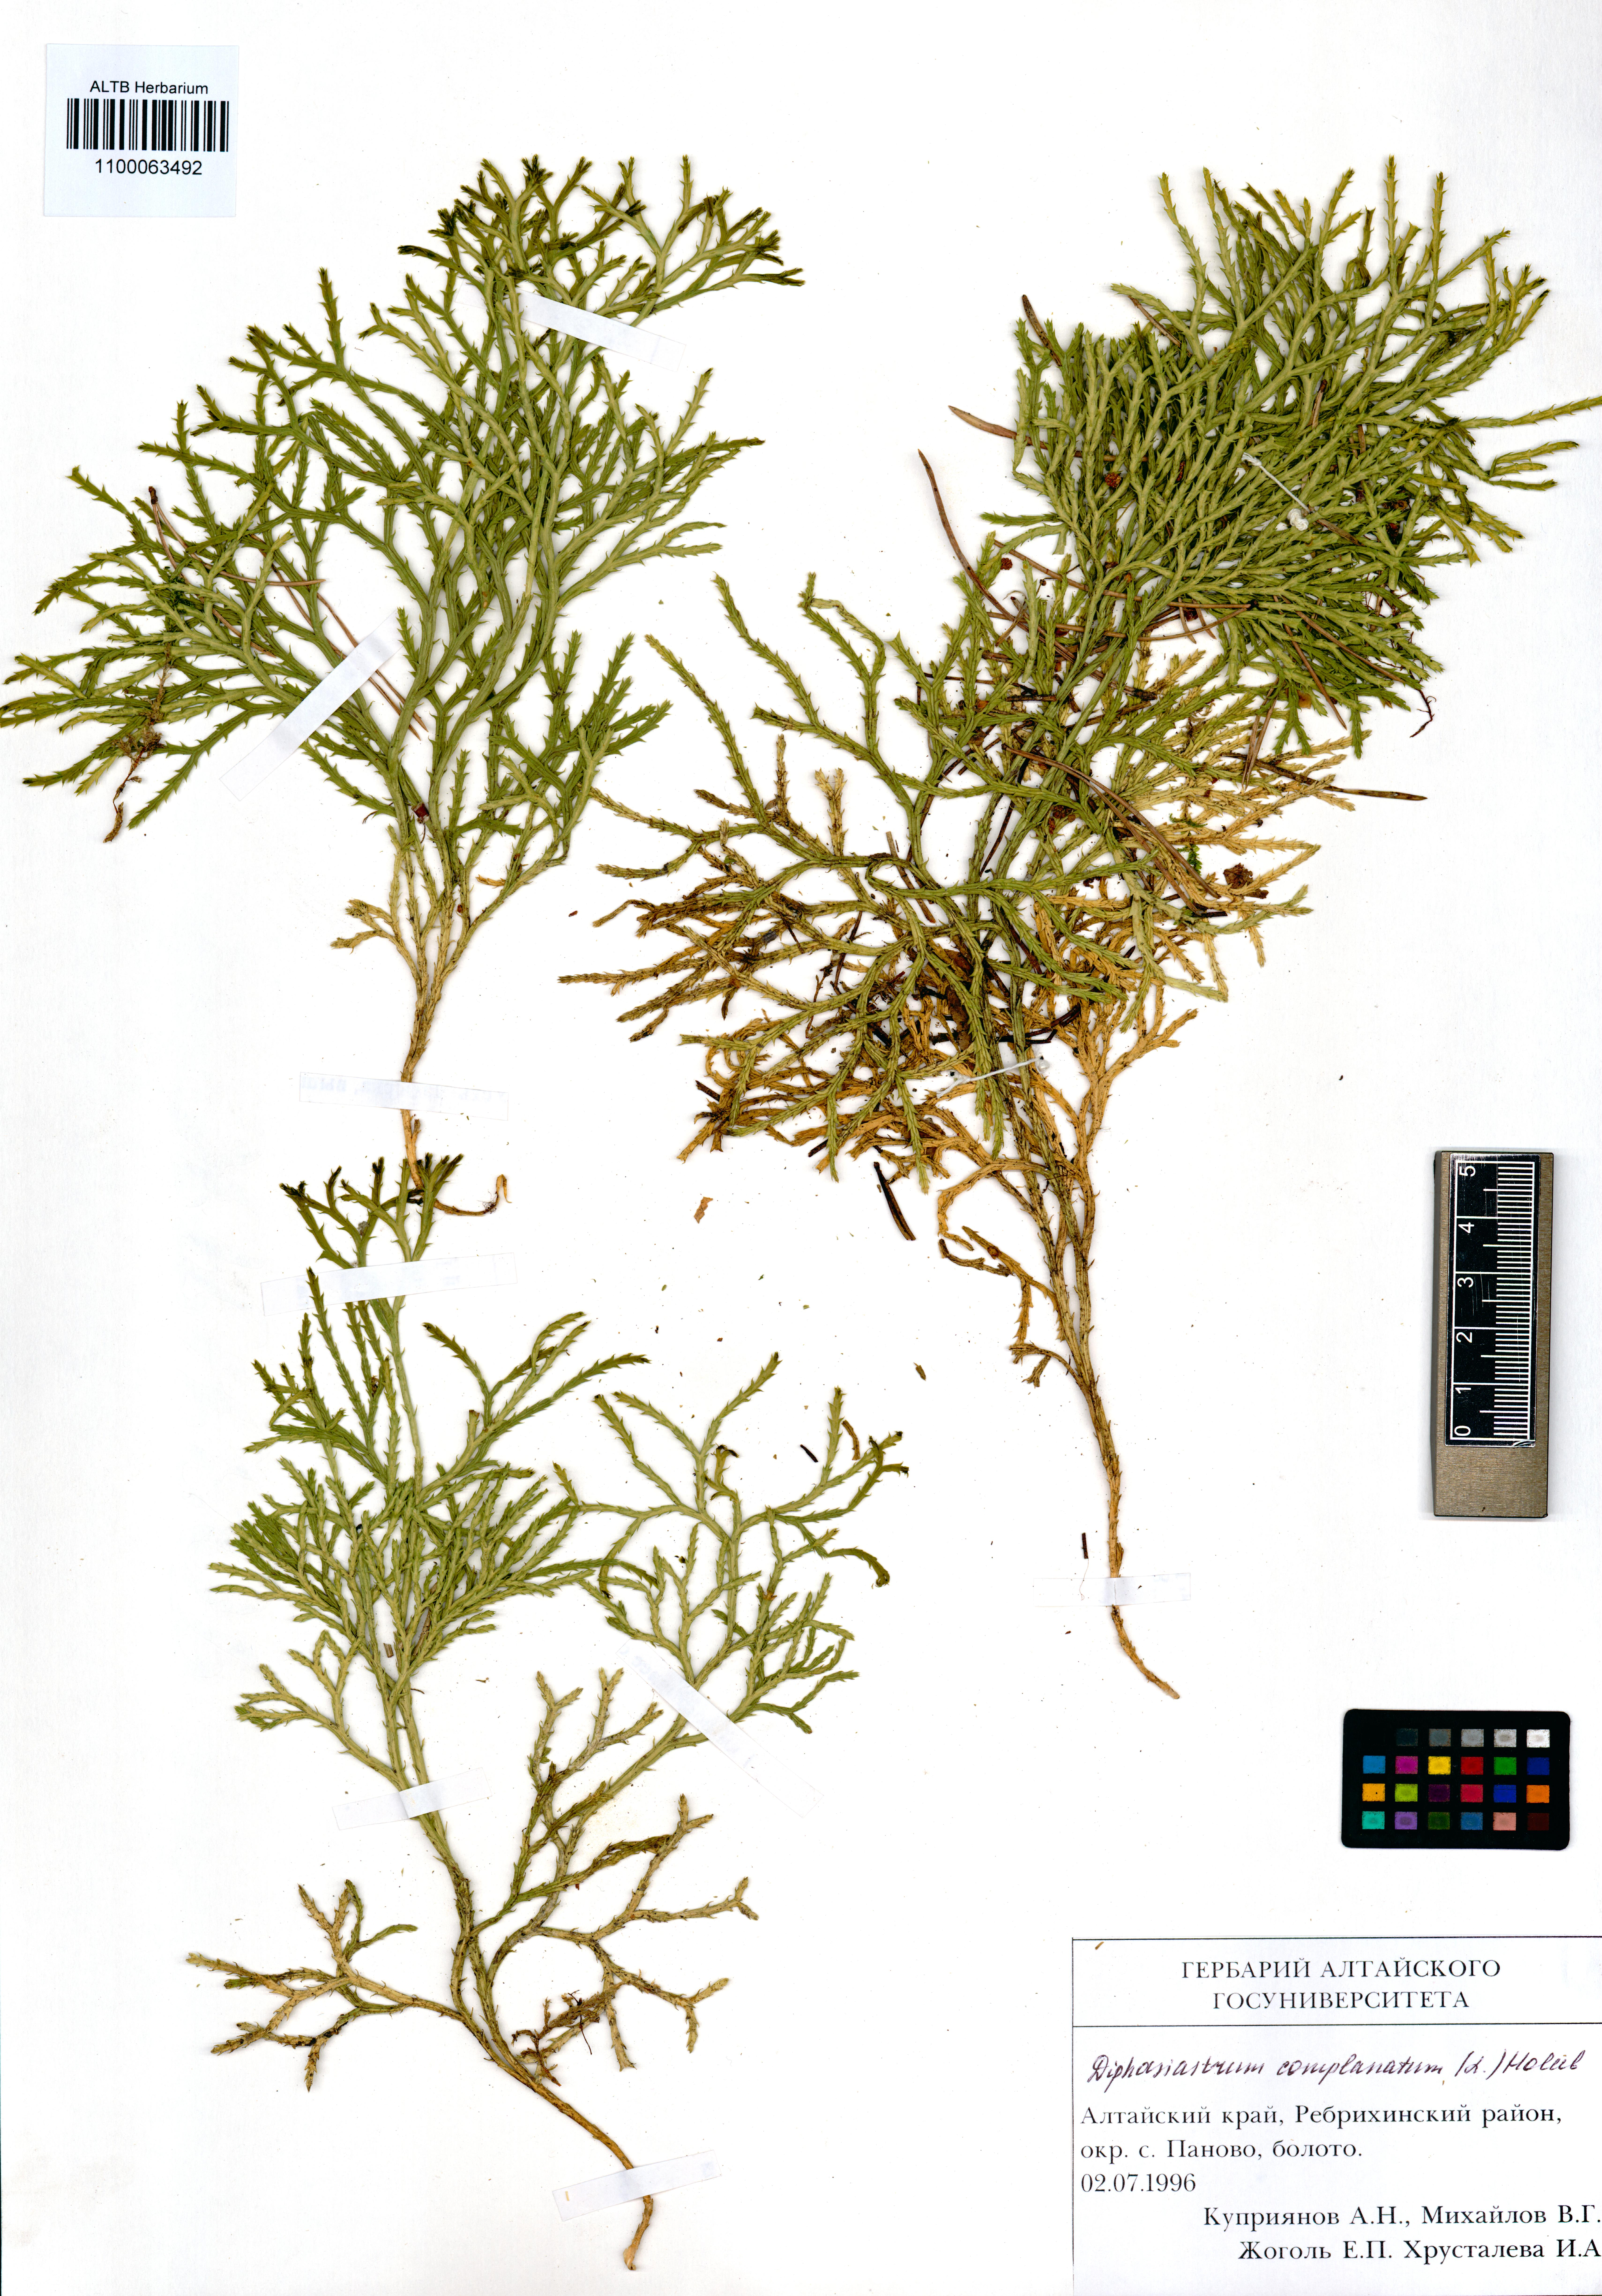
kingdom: Plantae
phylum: Tracheophyta
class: Lycopodiopsida
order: Lycopodiales
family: Lycopodiaceae
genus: Diphasiastrum
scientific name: Diphasiastrum complanatum
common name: Northern running-pine
